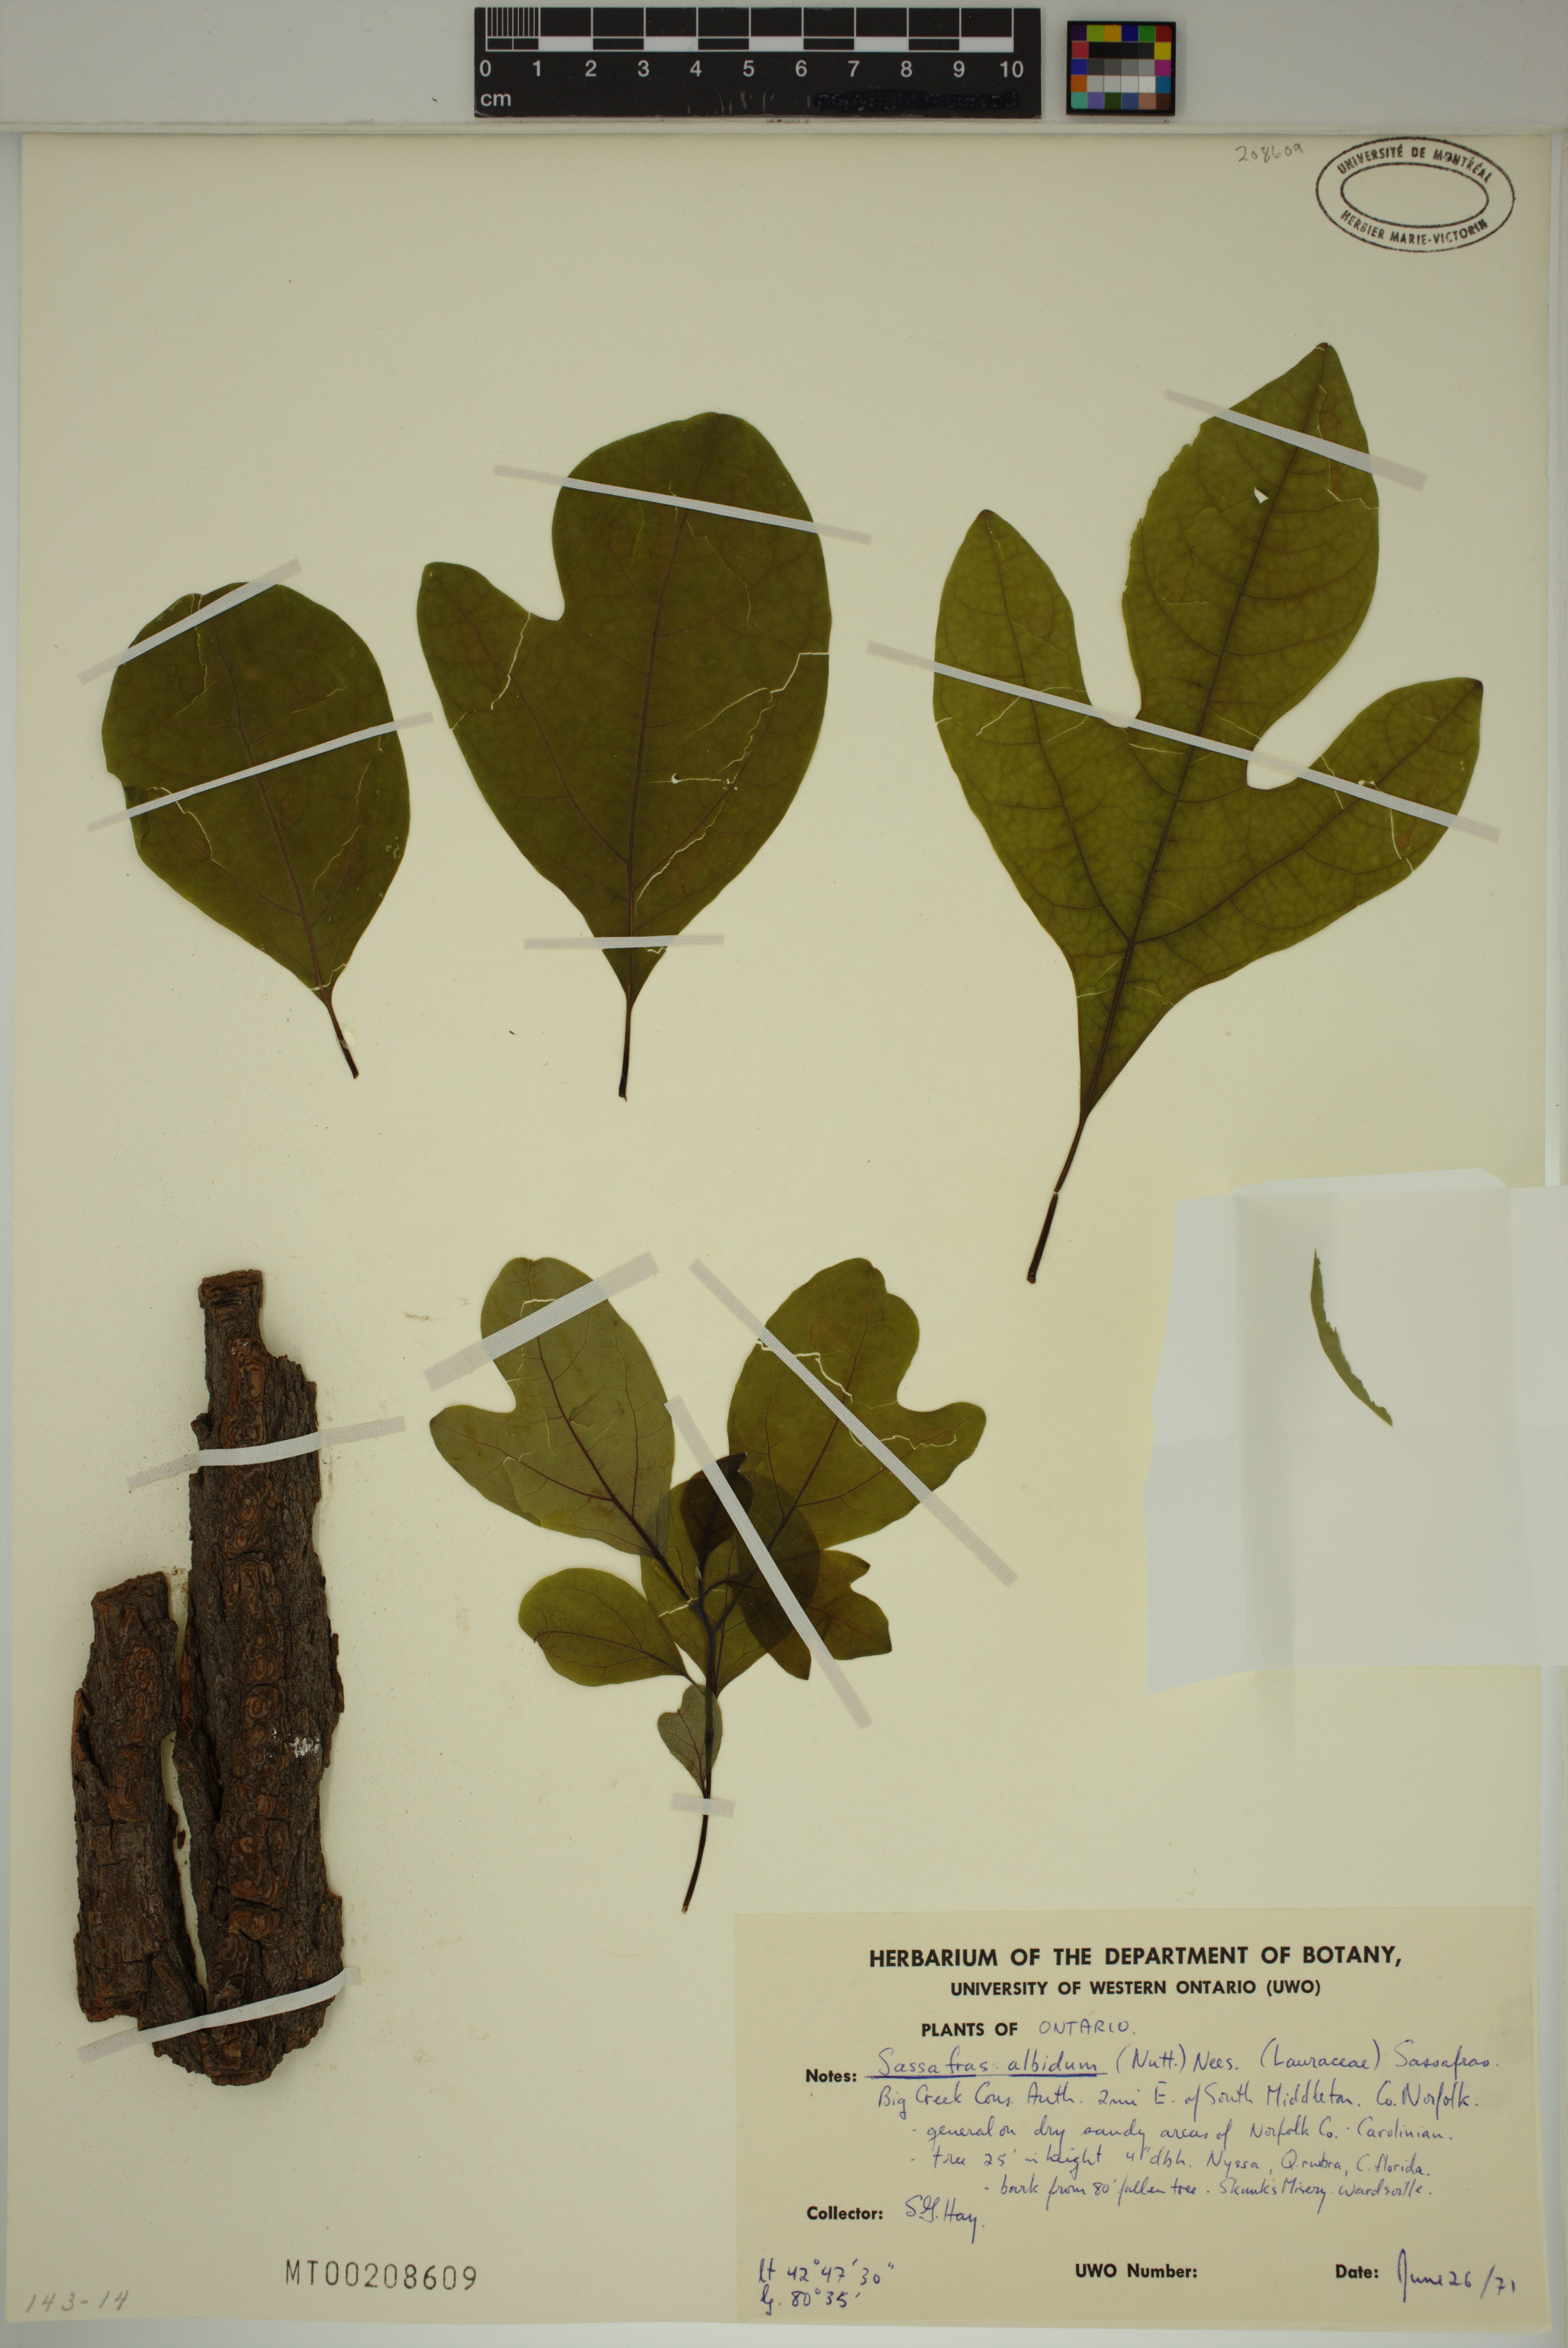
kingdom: Plantae
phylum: Tracheophyta
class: Magnoliopsida
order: Laurales
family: Lauraceae
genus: Sassafras
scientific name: Sassafras albidum
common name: Sassafras
